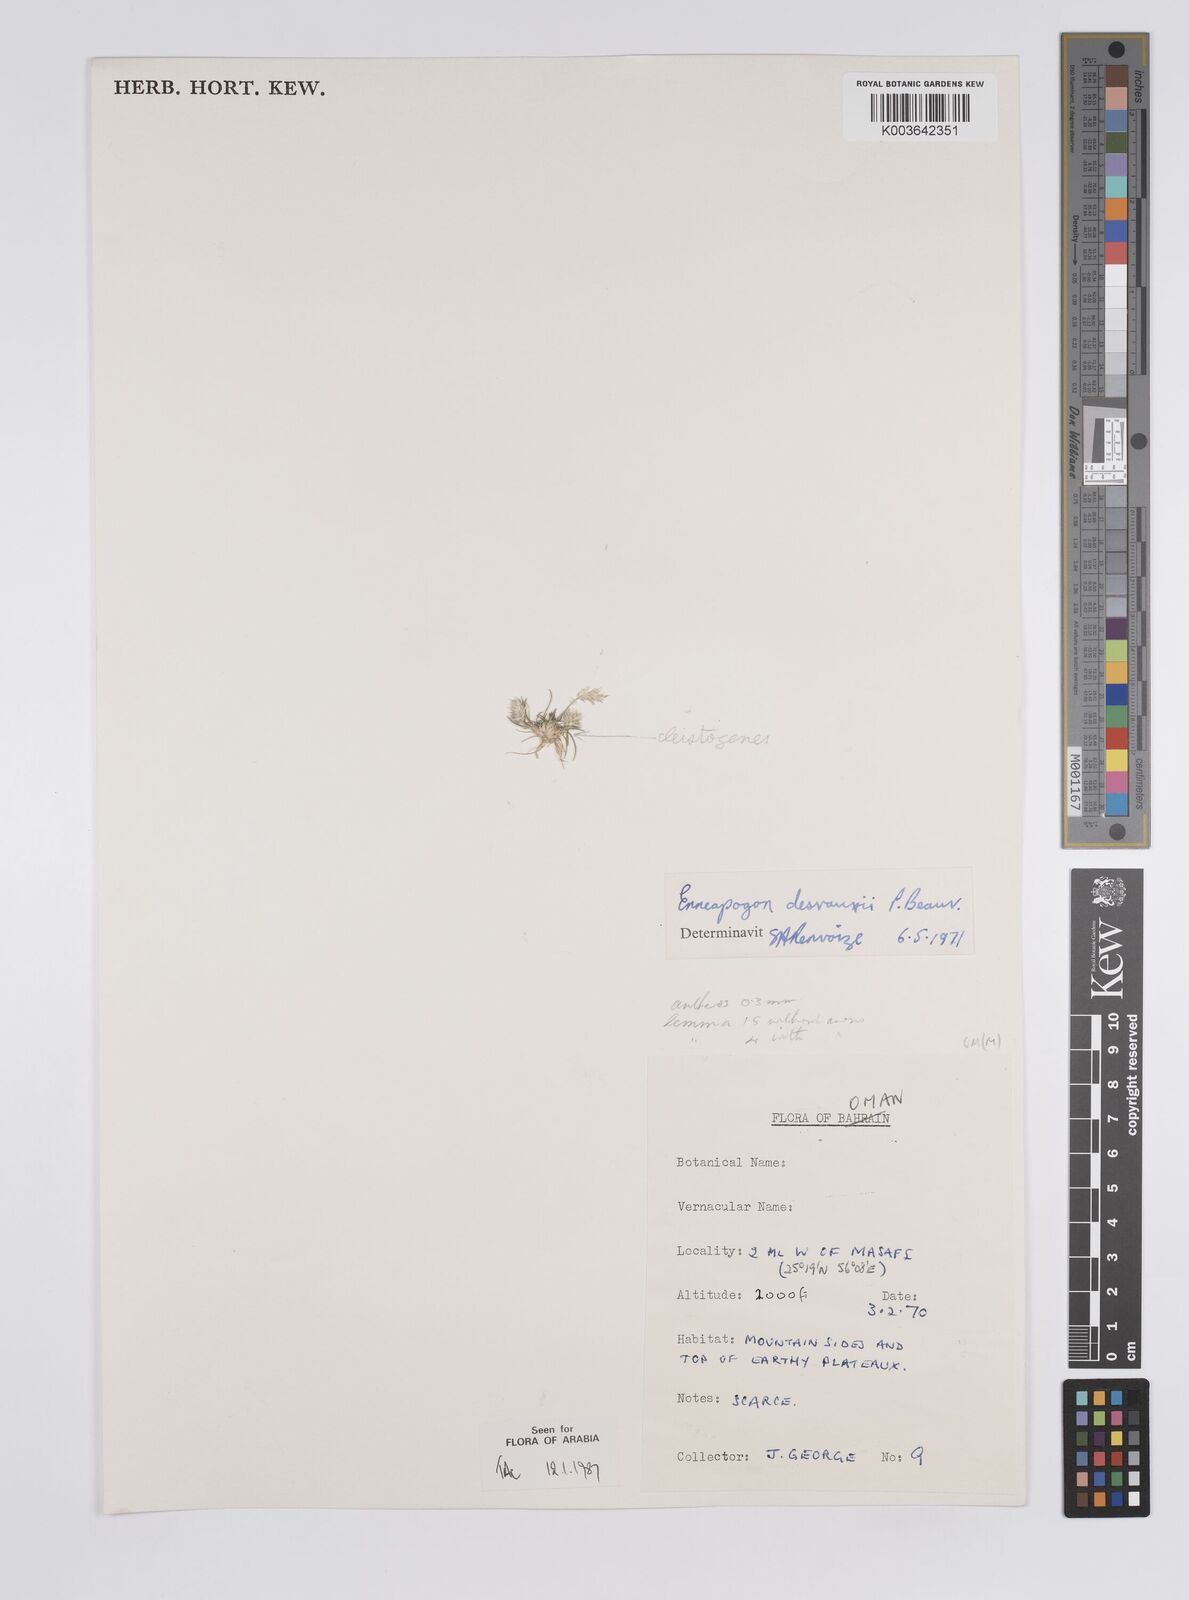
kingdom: Plantae
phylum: Tracheophyta
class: Liliopsida
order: Poales
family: Poaceae
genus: Enneapogon
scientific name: Enneapogon desvauxii
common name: Feather pappus grass
